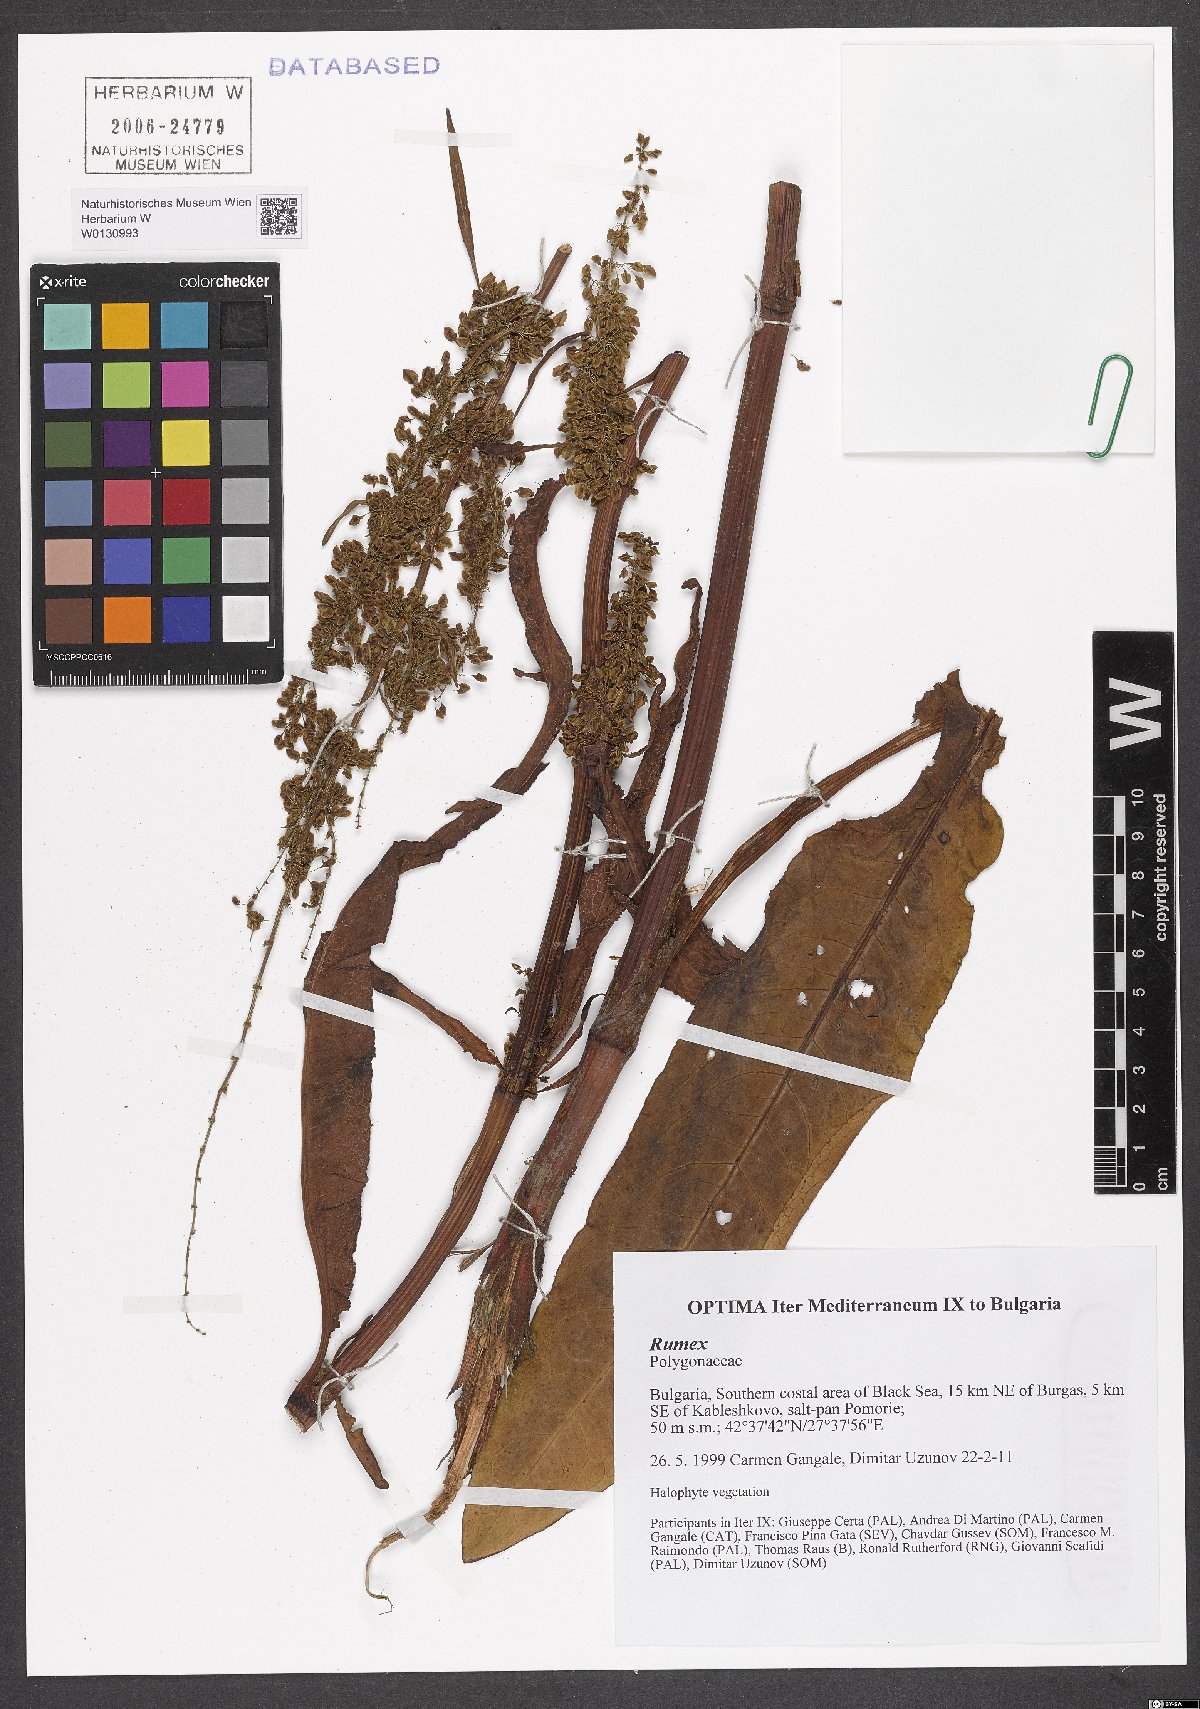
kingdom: Plantae
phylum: Tracheophyta
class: Magnoliopsida
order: Caryophyllales
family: Polygonaceae
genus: Rumex
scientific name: Rumex
